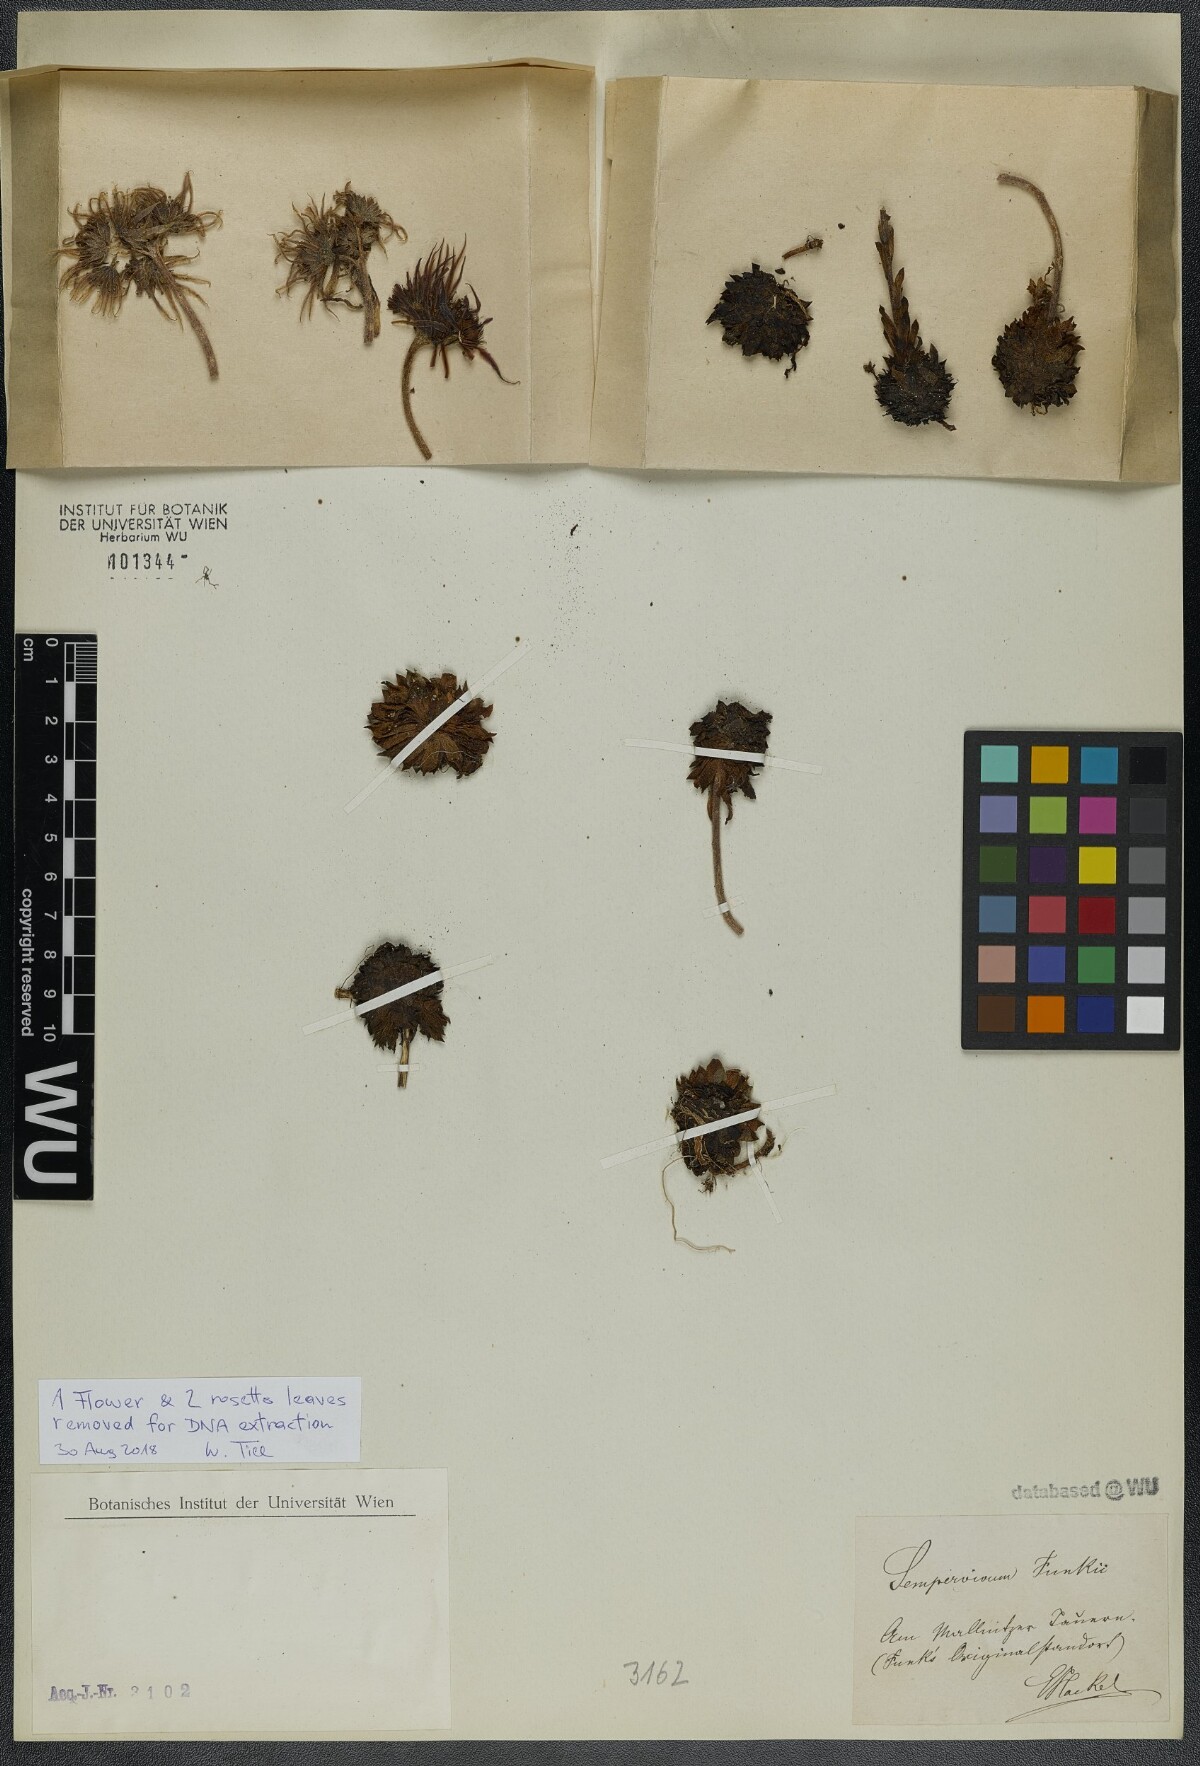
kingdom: Plantae
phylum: Tracheophyta
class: Magnoliopsida
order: Saxifragales
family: Crassulaceae
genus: Sempervivum
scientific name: Sempervivum funckii
